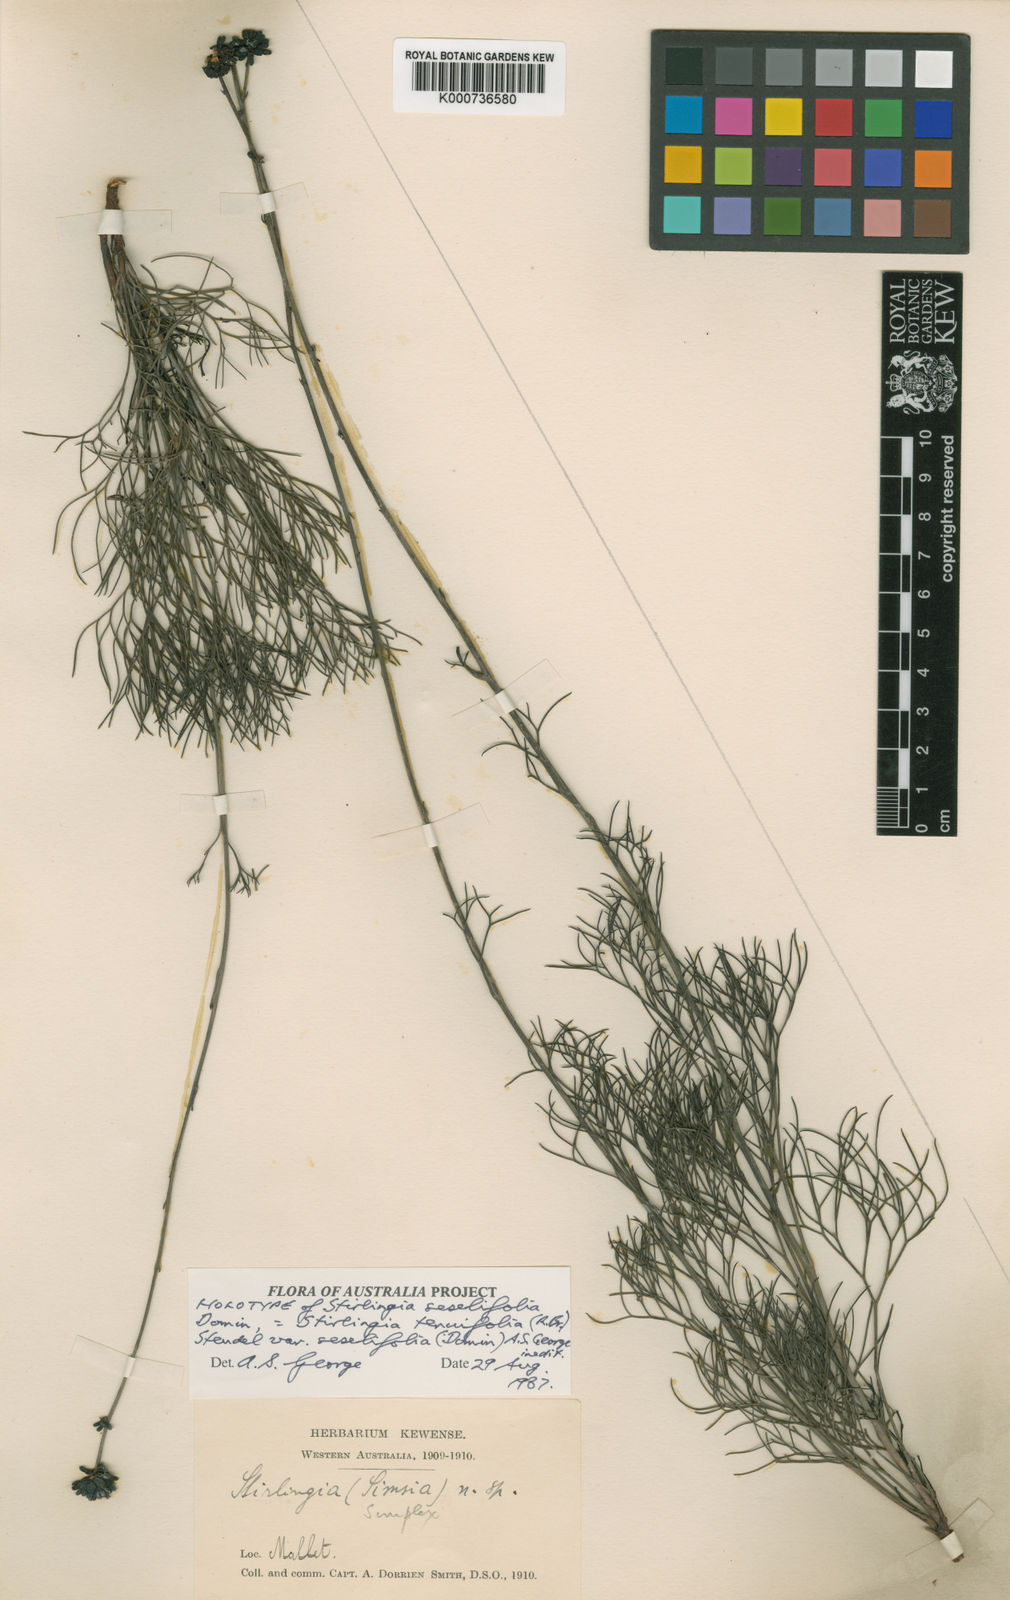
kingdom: Plantae
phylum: Tracheophyta
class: Magnoliopsida
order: Proteales
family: Proteaceae
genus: Stirlingia
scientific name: Stirlingia tenuifolia
